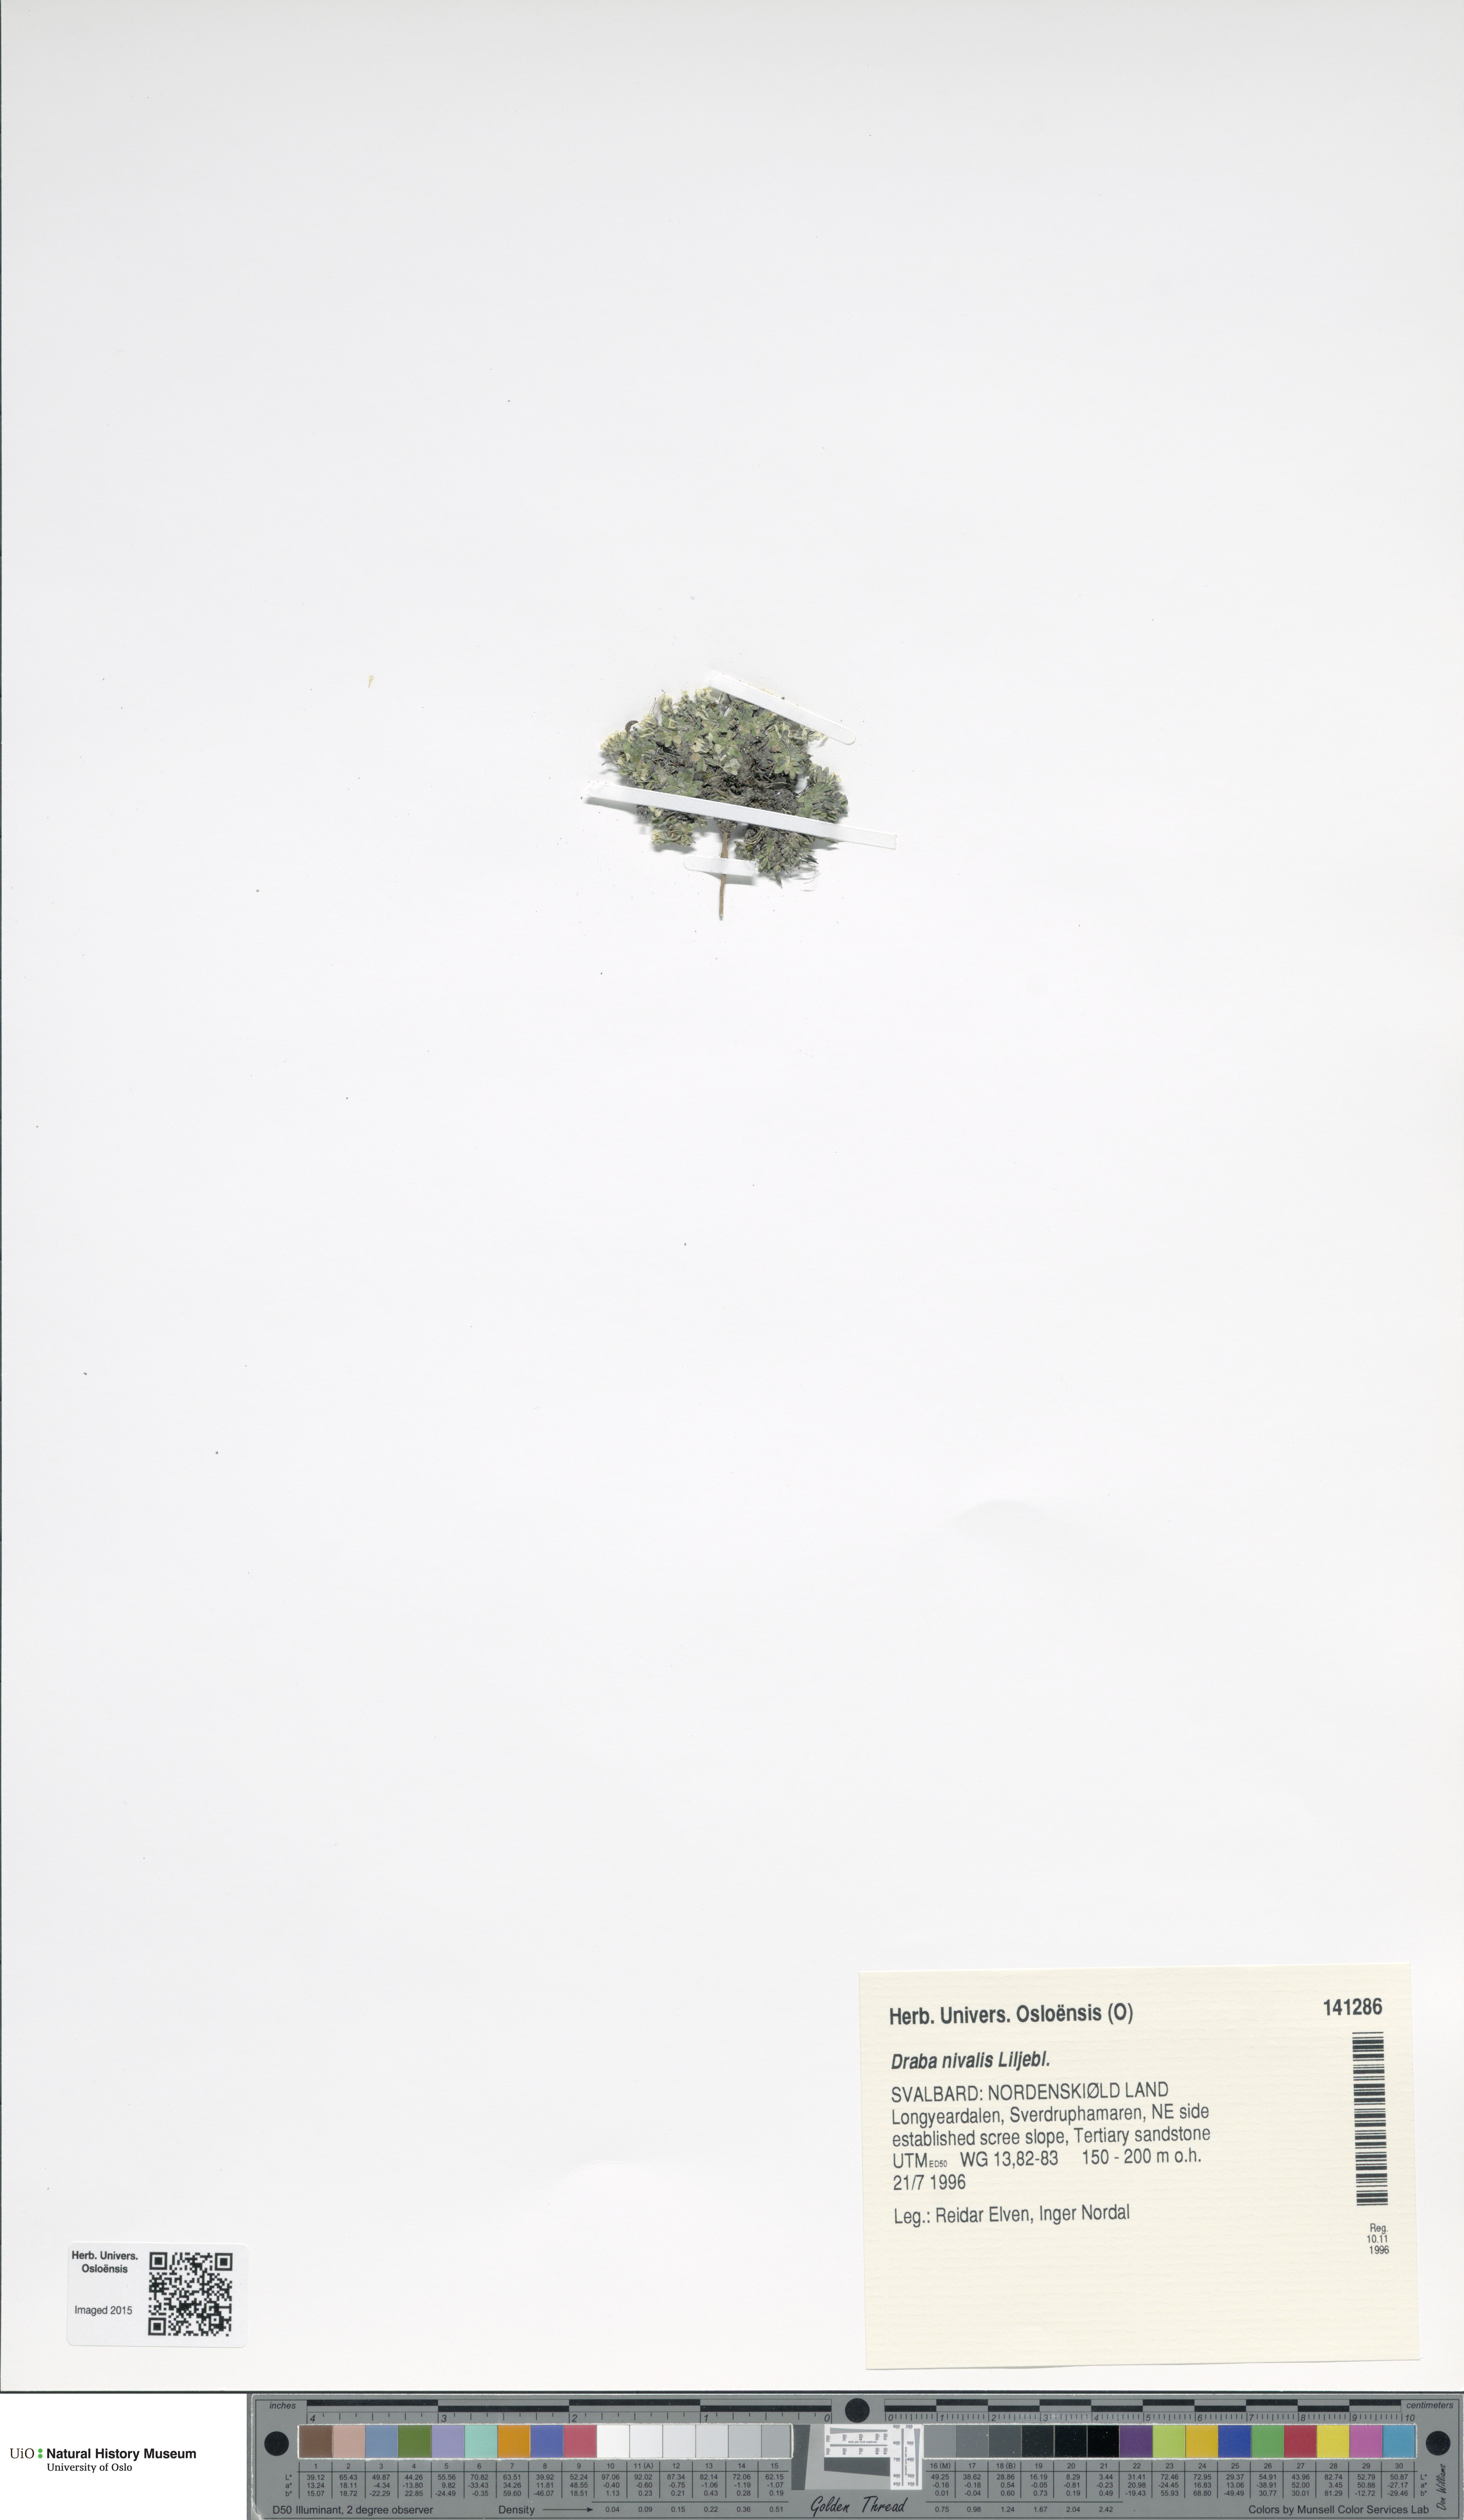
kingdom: Plantae
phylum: Tracheophyta
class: Magnoliopsida
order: Brassicales
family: Brassicaceae
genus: Draba
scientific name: Draba nivalis
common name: Snow draba
